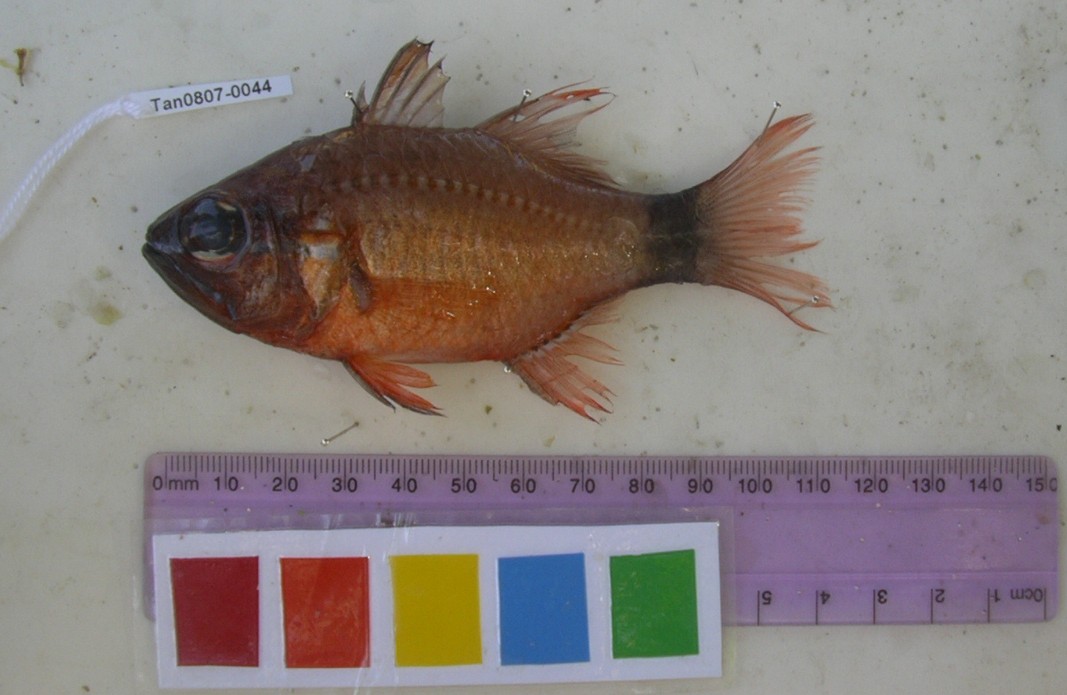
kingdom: Animalia
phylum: Chordata
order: Perciformes
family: Apogonidae
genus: Ostorhinchus
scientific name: Ostorhinchus fleurieu
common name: Bullseye cardinalfish
